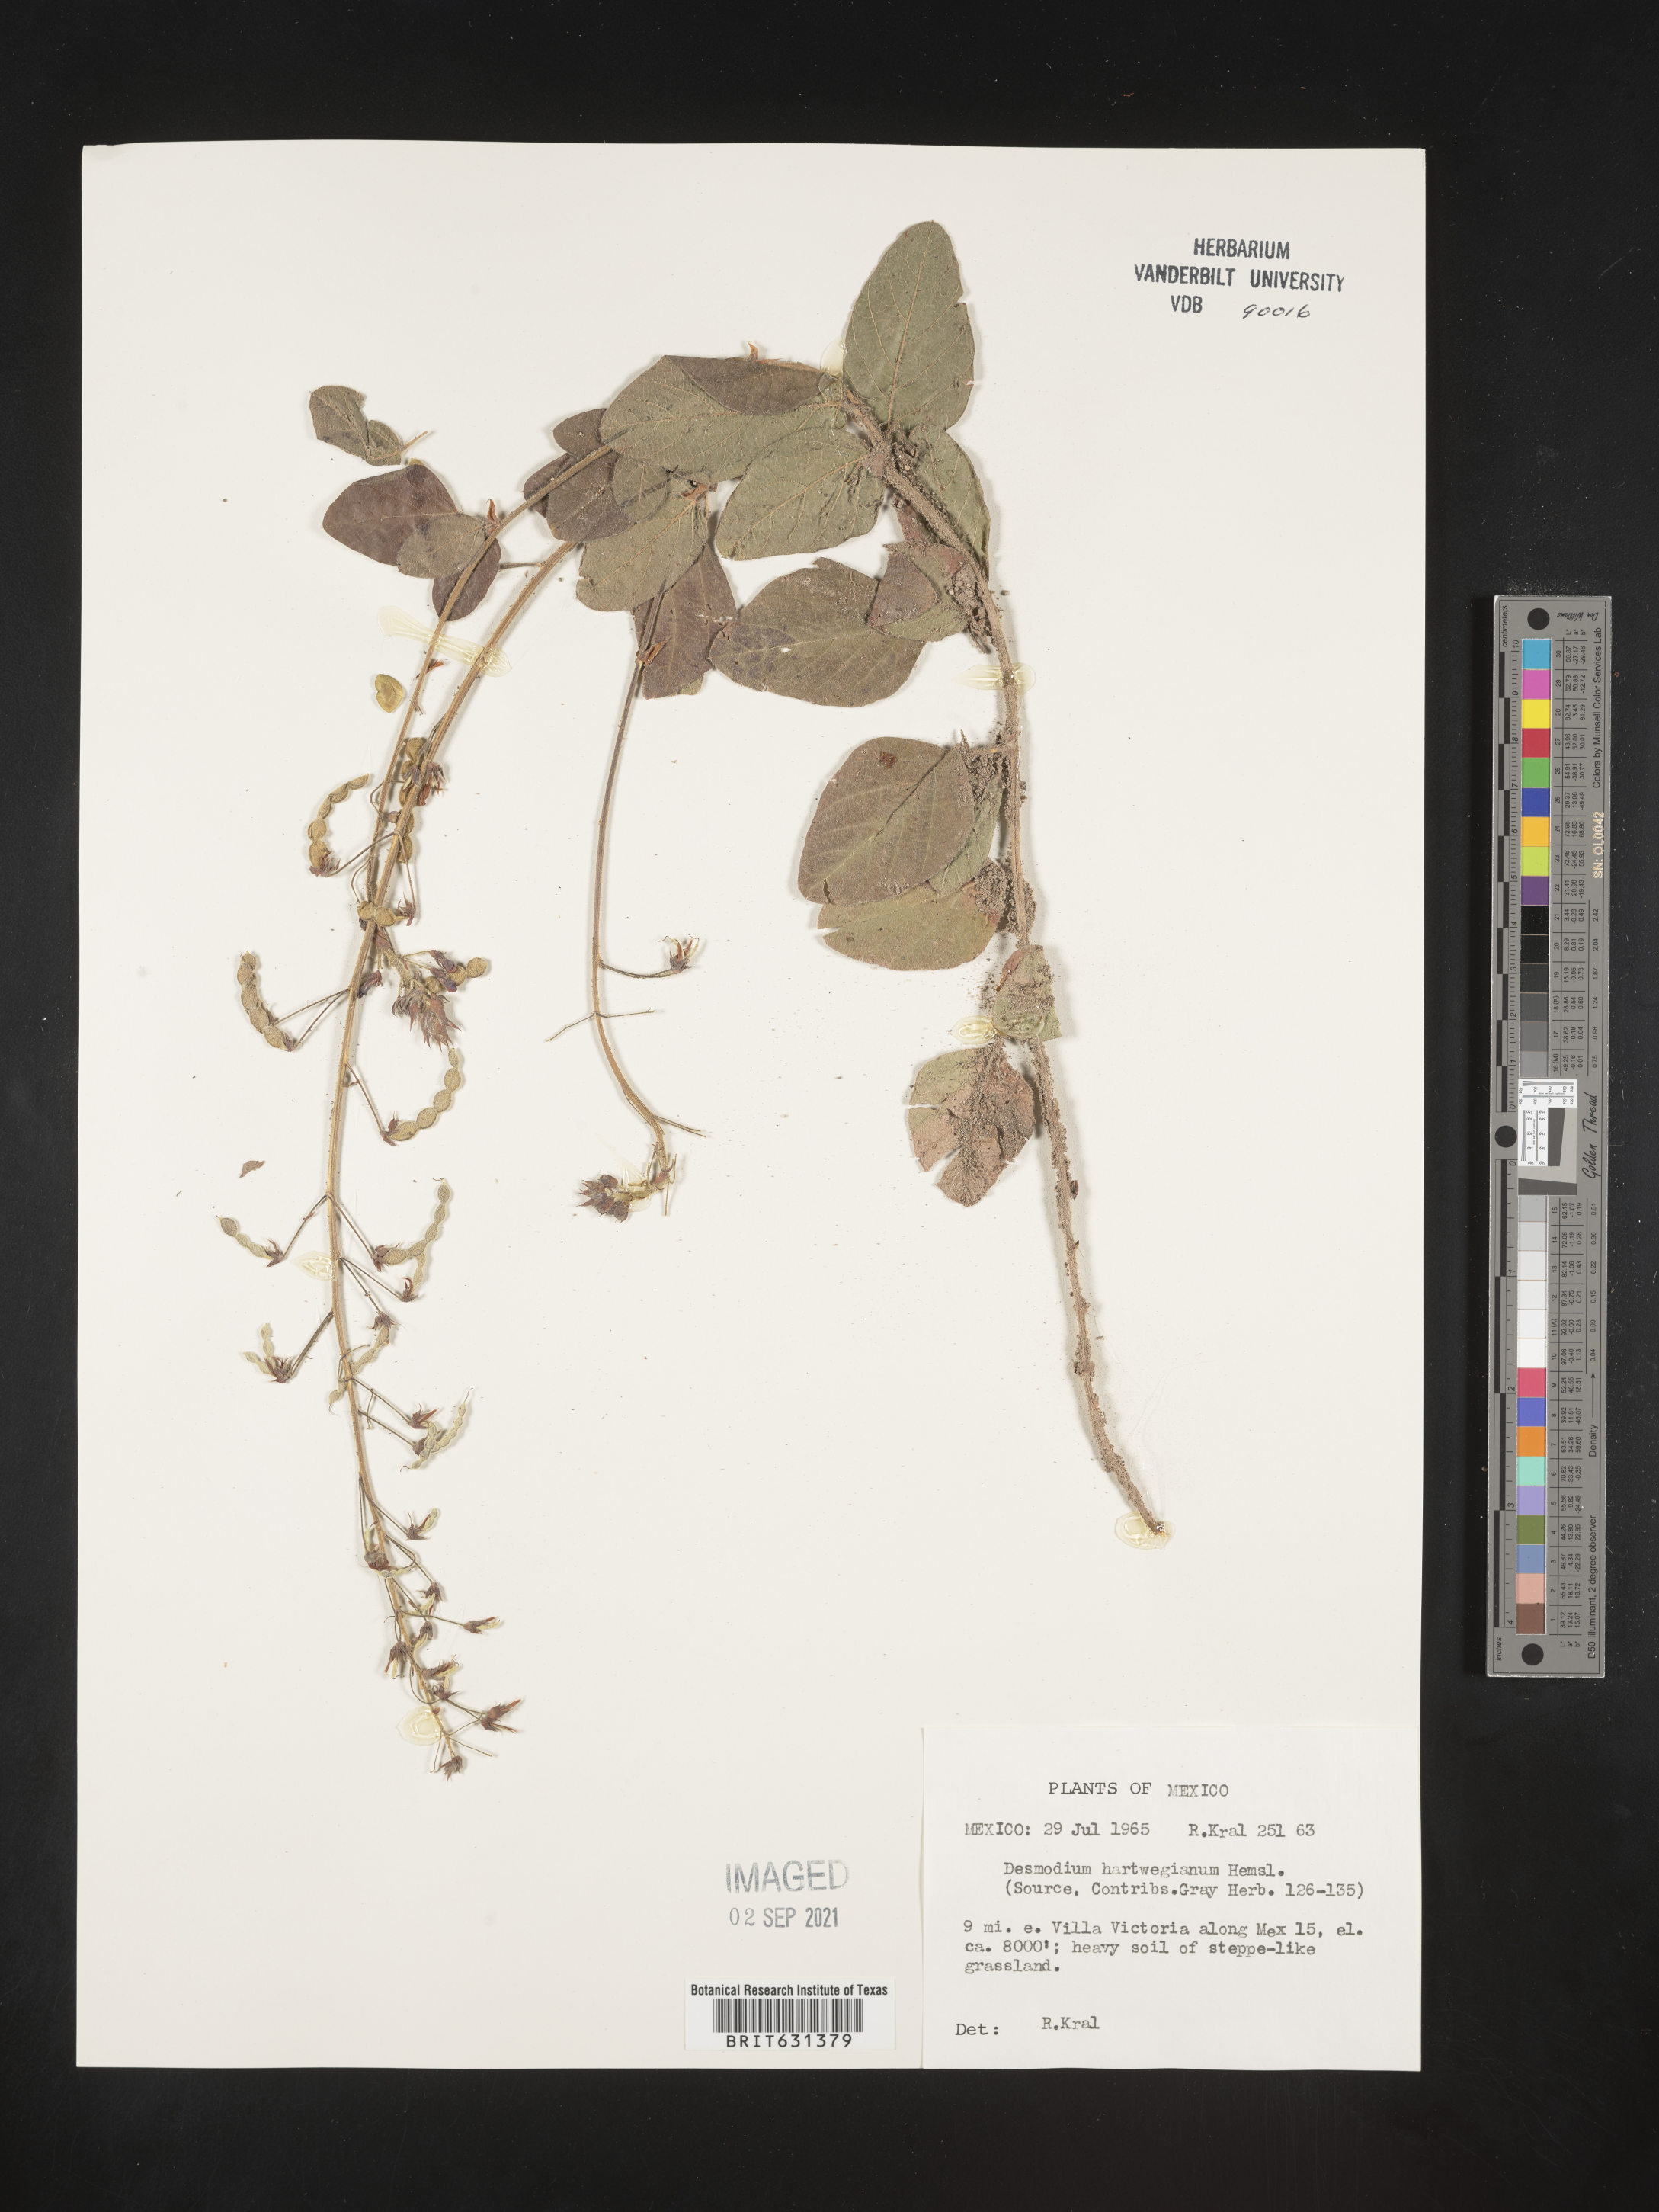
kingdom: Plantae
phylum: Tracheophyta
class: Magnoliopsida
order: Fabales
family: Fabaceae
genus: Desmodium
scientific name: Desmodium hartwegianum
